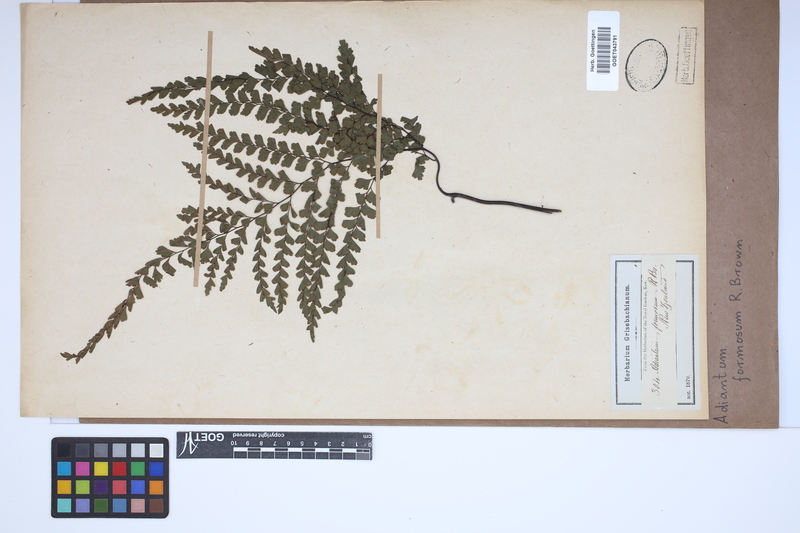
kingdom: Plantae
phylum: Tracheophyta
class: Polypodiopsida
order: Polypodiales
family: Pteridaceae
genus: Adiantum
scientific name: Adiantum formosum
